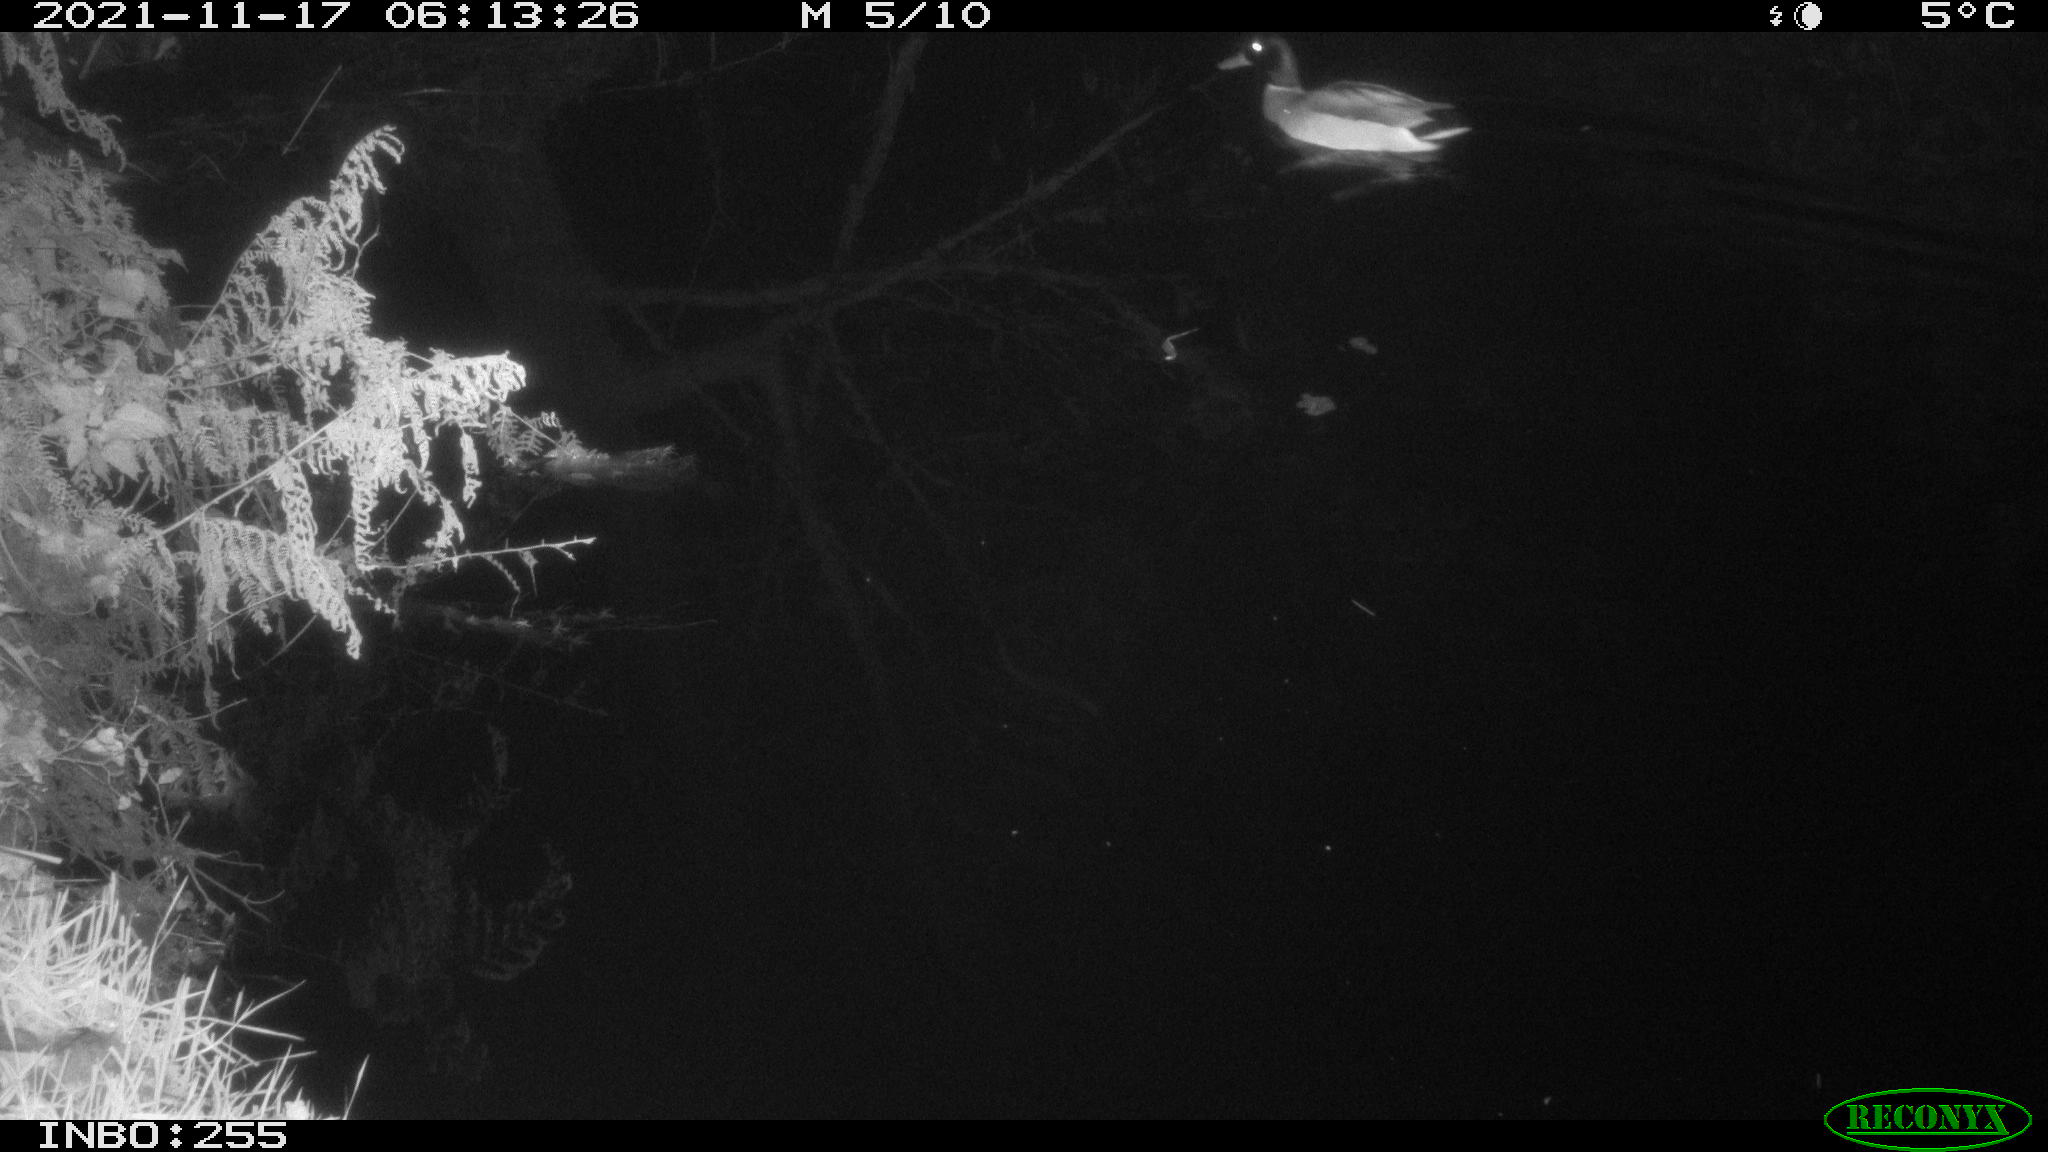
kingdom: Animalia
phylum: Chordata
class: Aves
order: Anseriformes
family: Anatidae
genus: Anas
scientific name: Anas platyrhynchos
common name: Mallard
